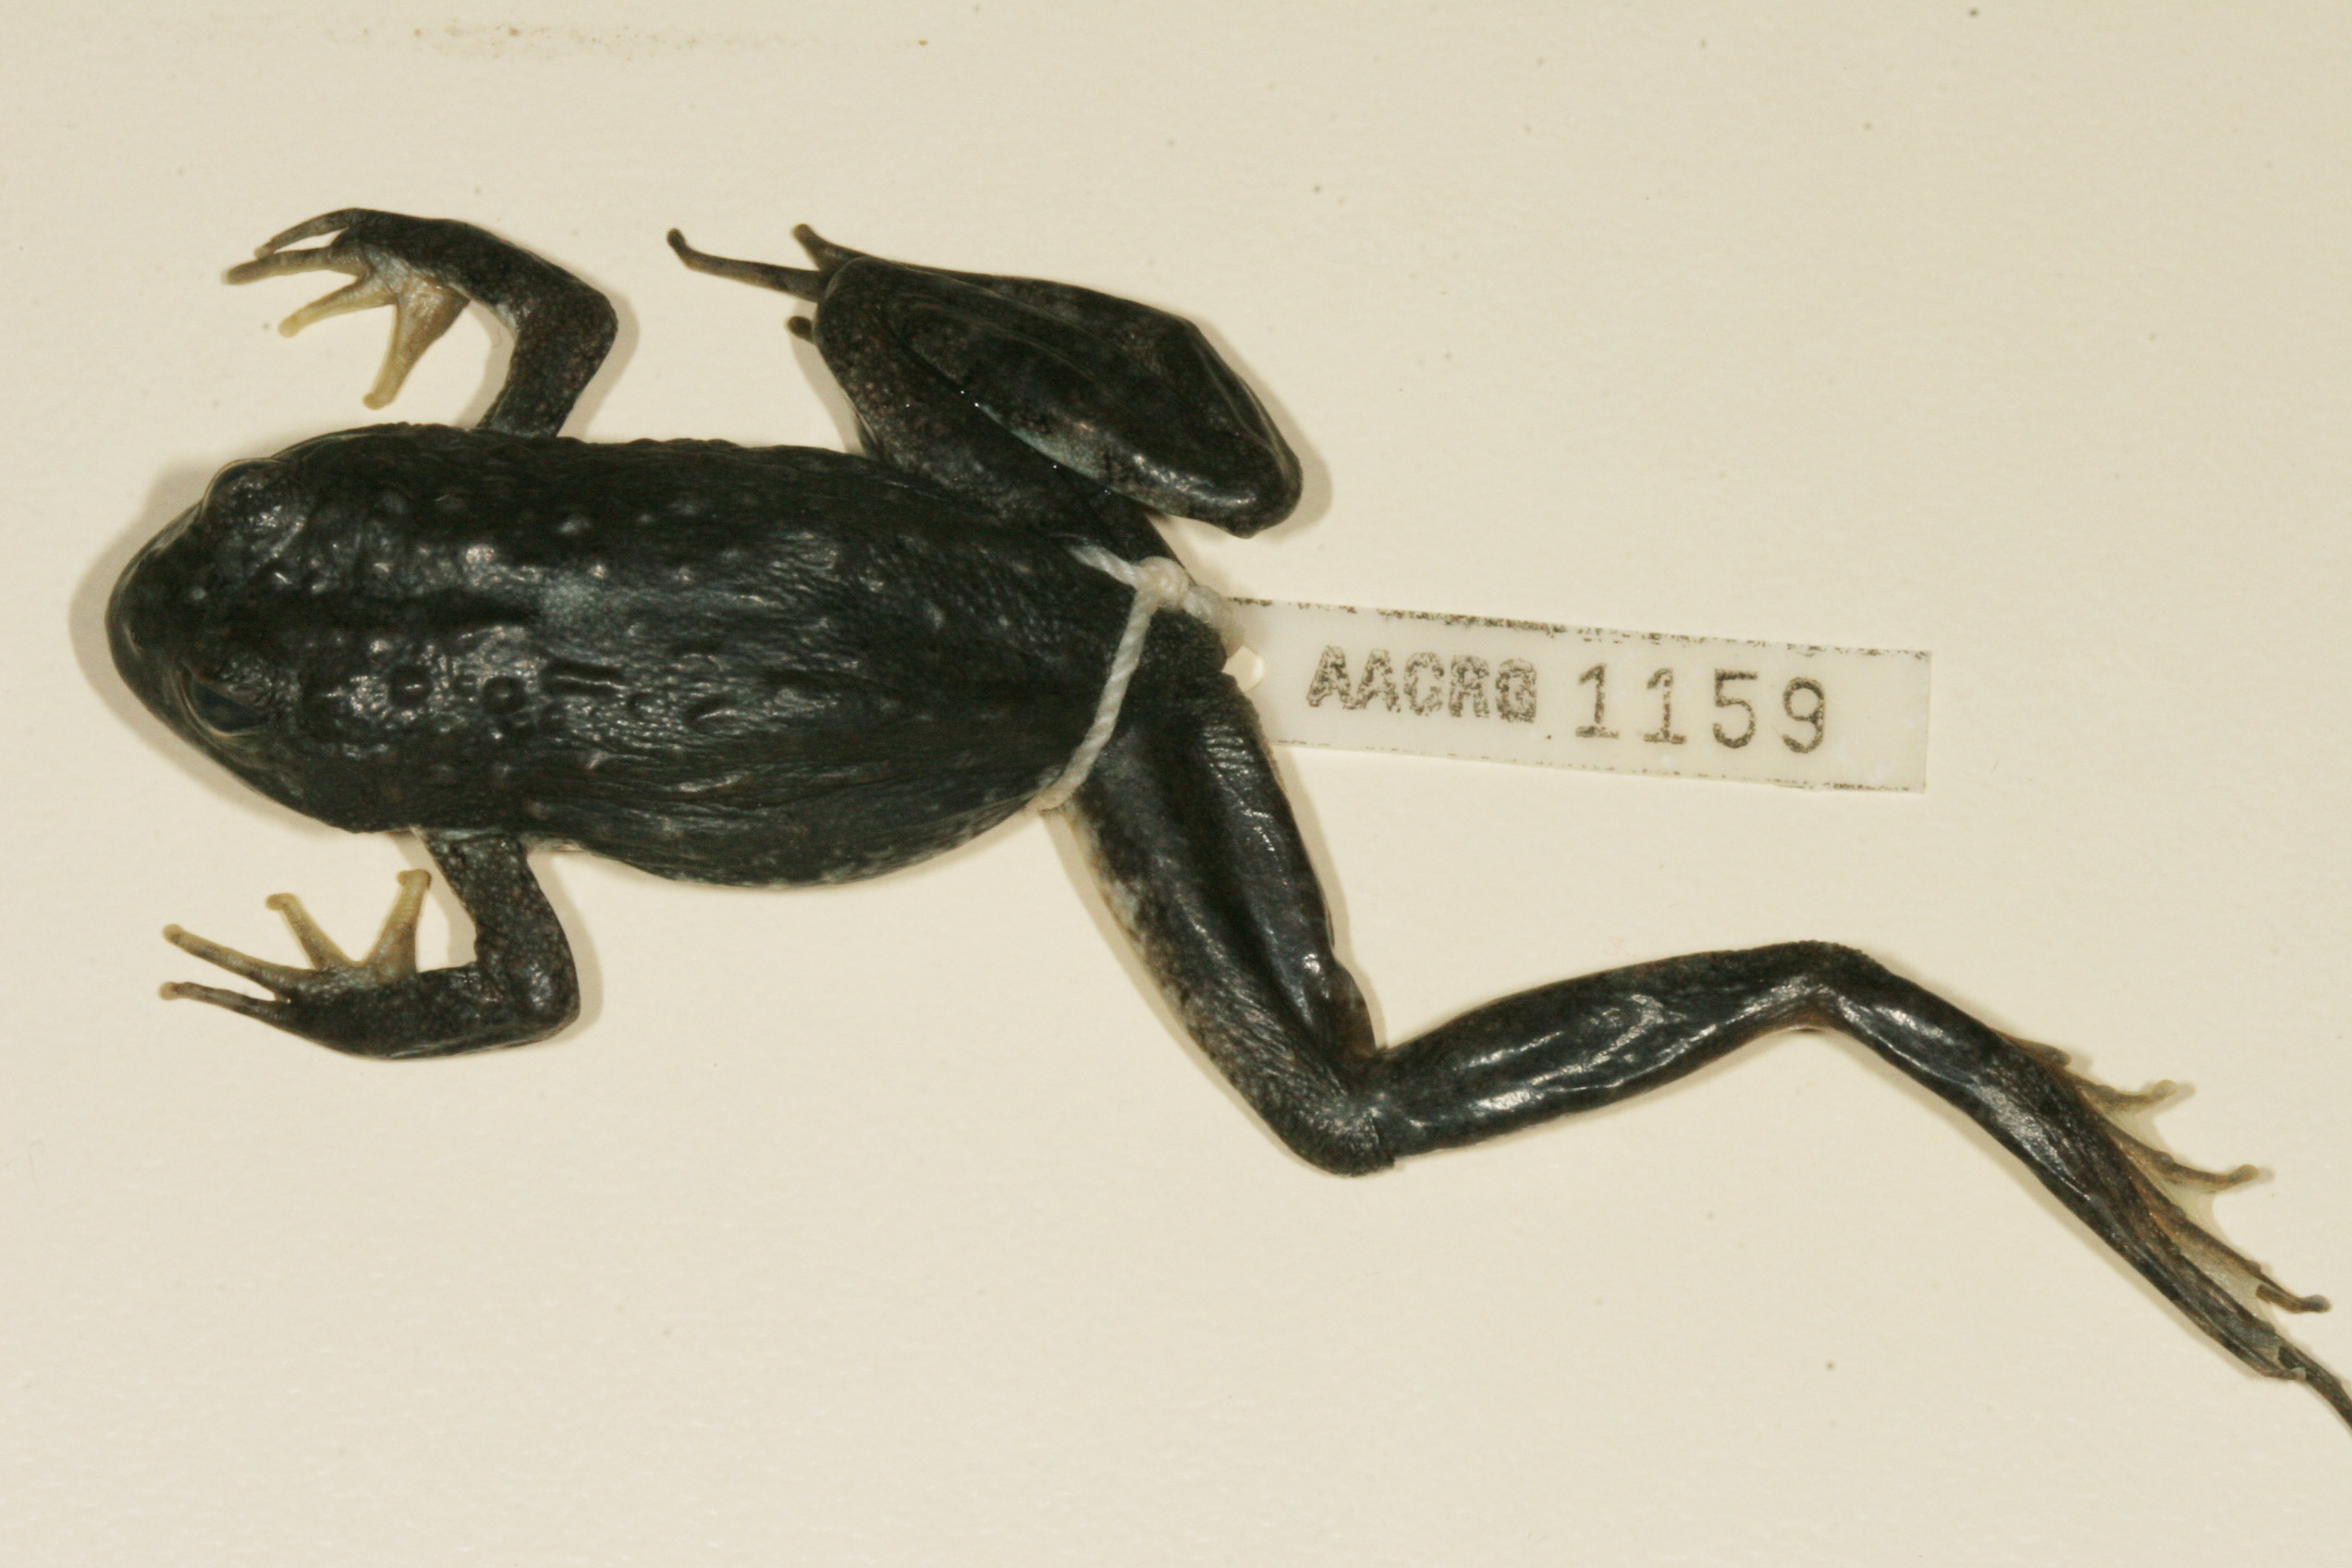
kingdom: Animalia
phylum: Chordata
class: Amphibia
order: Anura
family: Pyxicephalidae
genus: Amietia
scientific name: Amietia vertebralis
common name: Drakensberg stream frog
